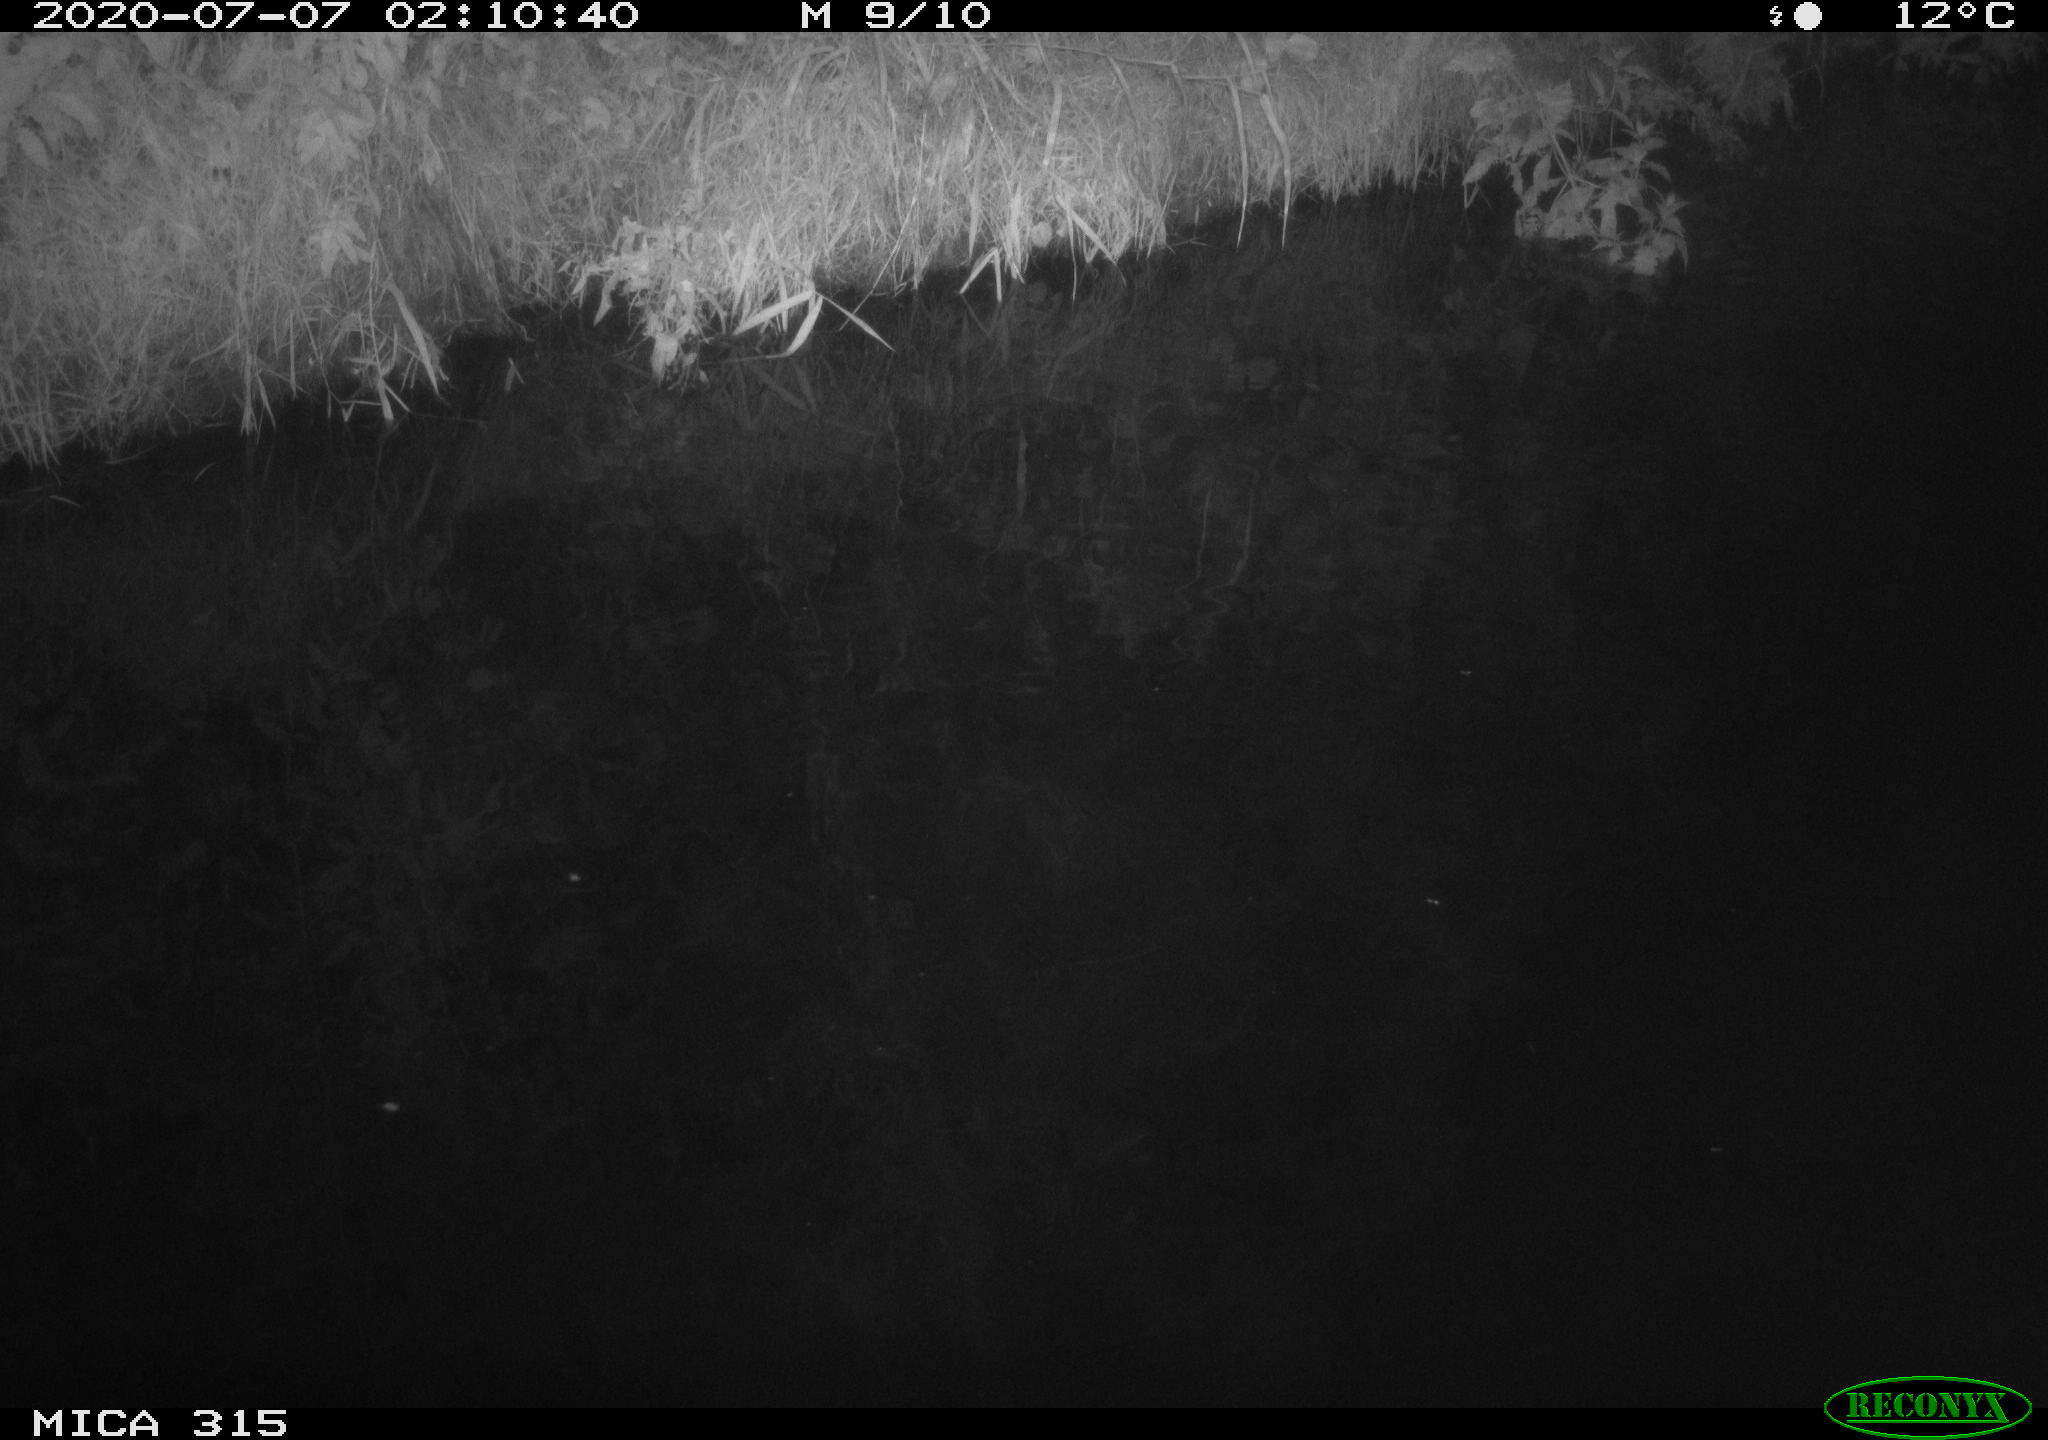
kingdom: Animalia
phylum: Chordata
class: Aves
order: Anseriformes
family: Anatidae
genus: Anas
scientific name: Anas platyrhynchos
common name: Mallard
